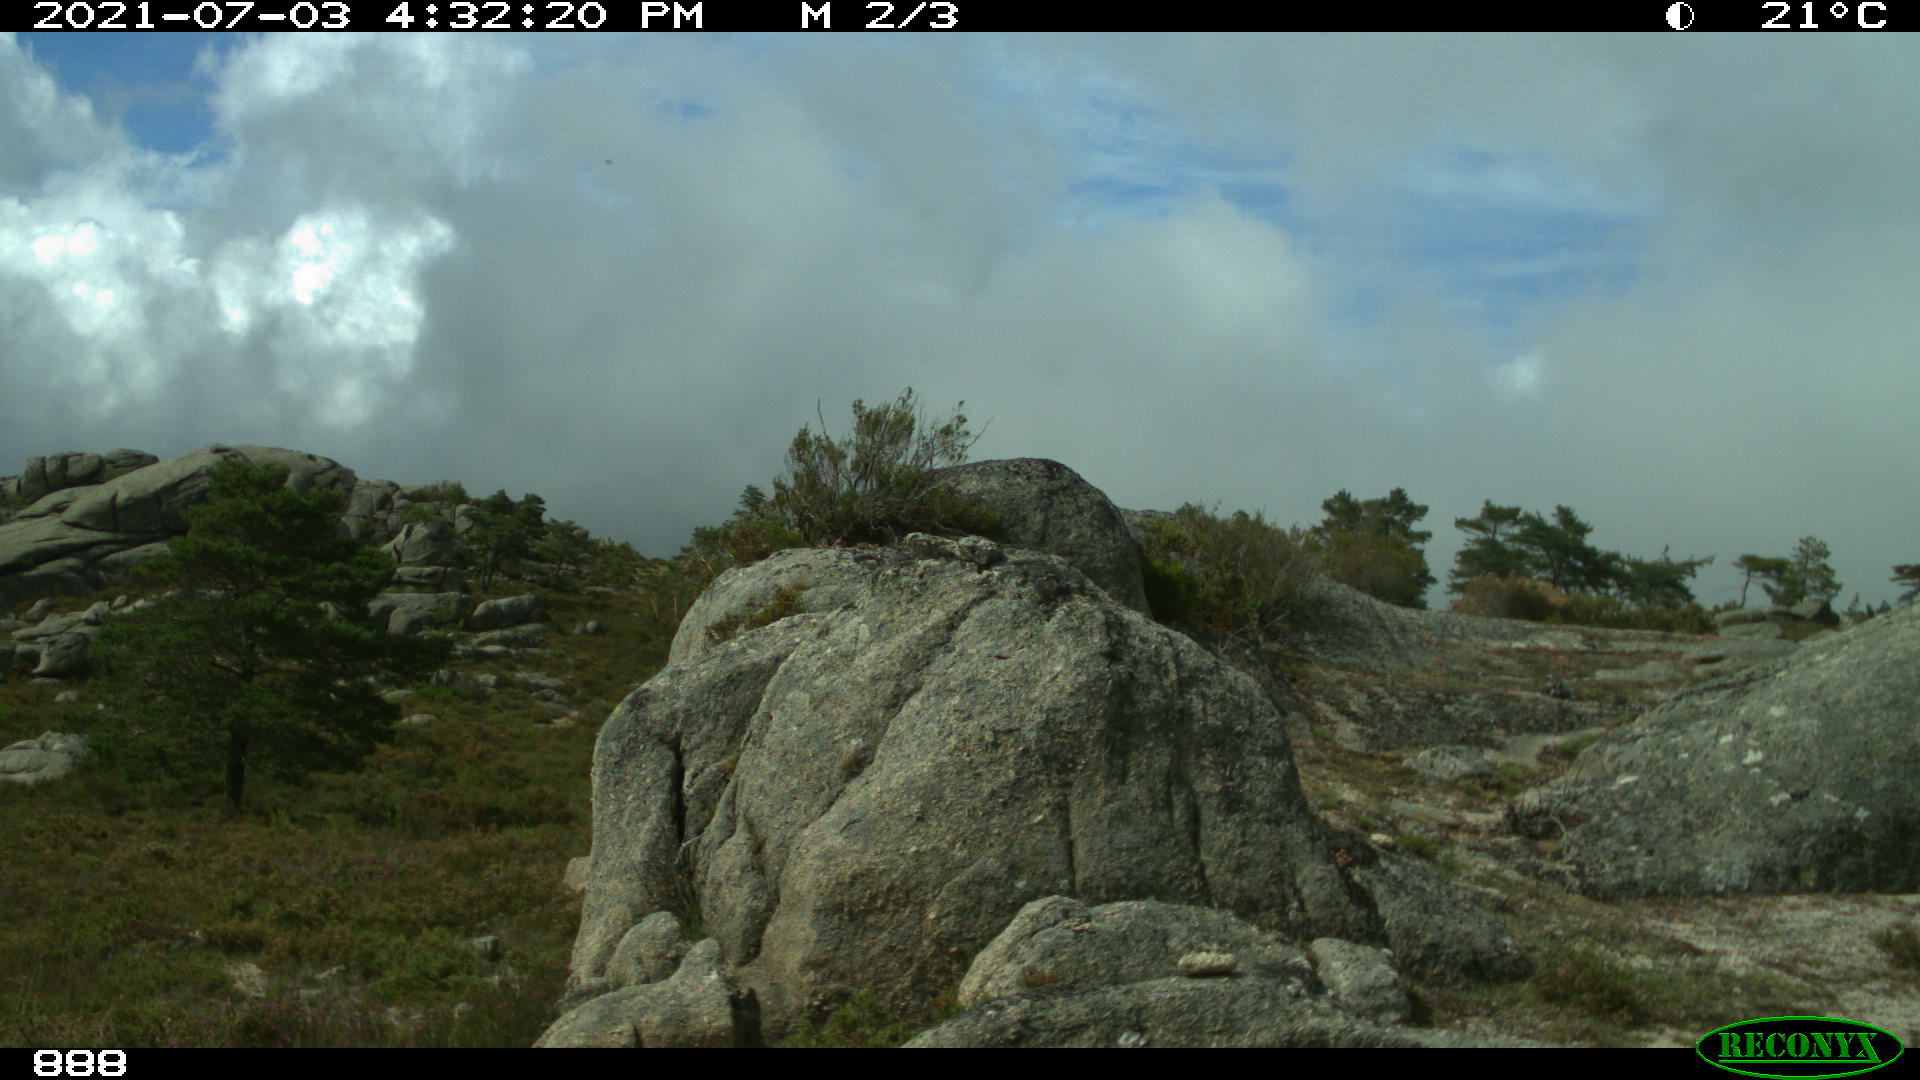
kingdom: Animalia
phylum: Chordata
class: Mammalia
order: Perissodactyla
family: Equidae
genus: Equus
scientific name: Equus caballus
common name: Horse
